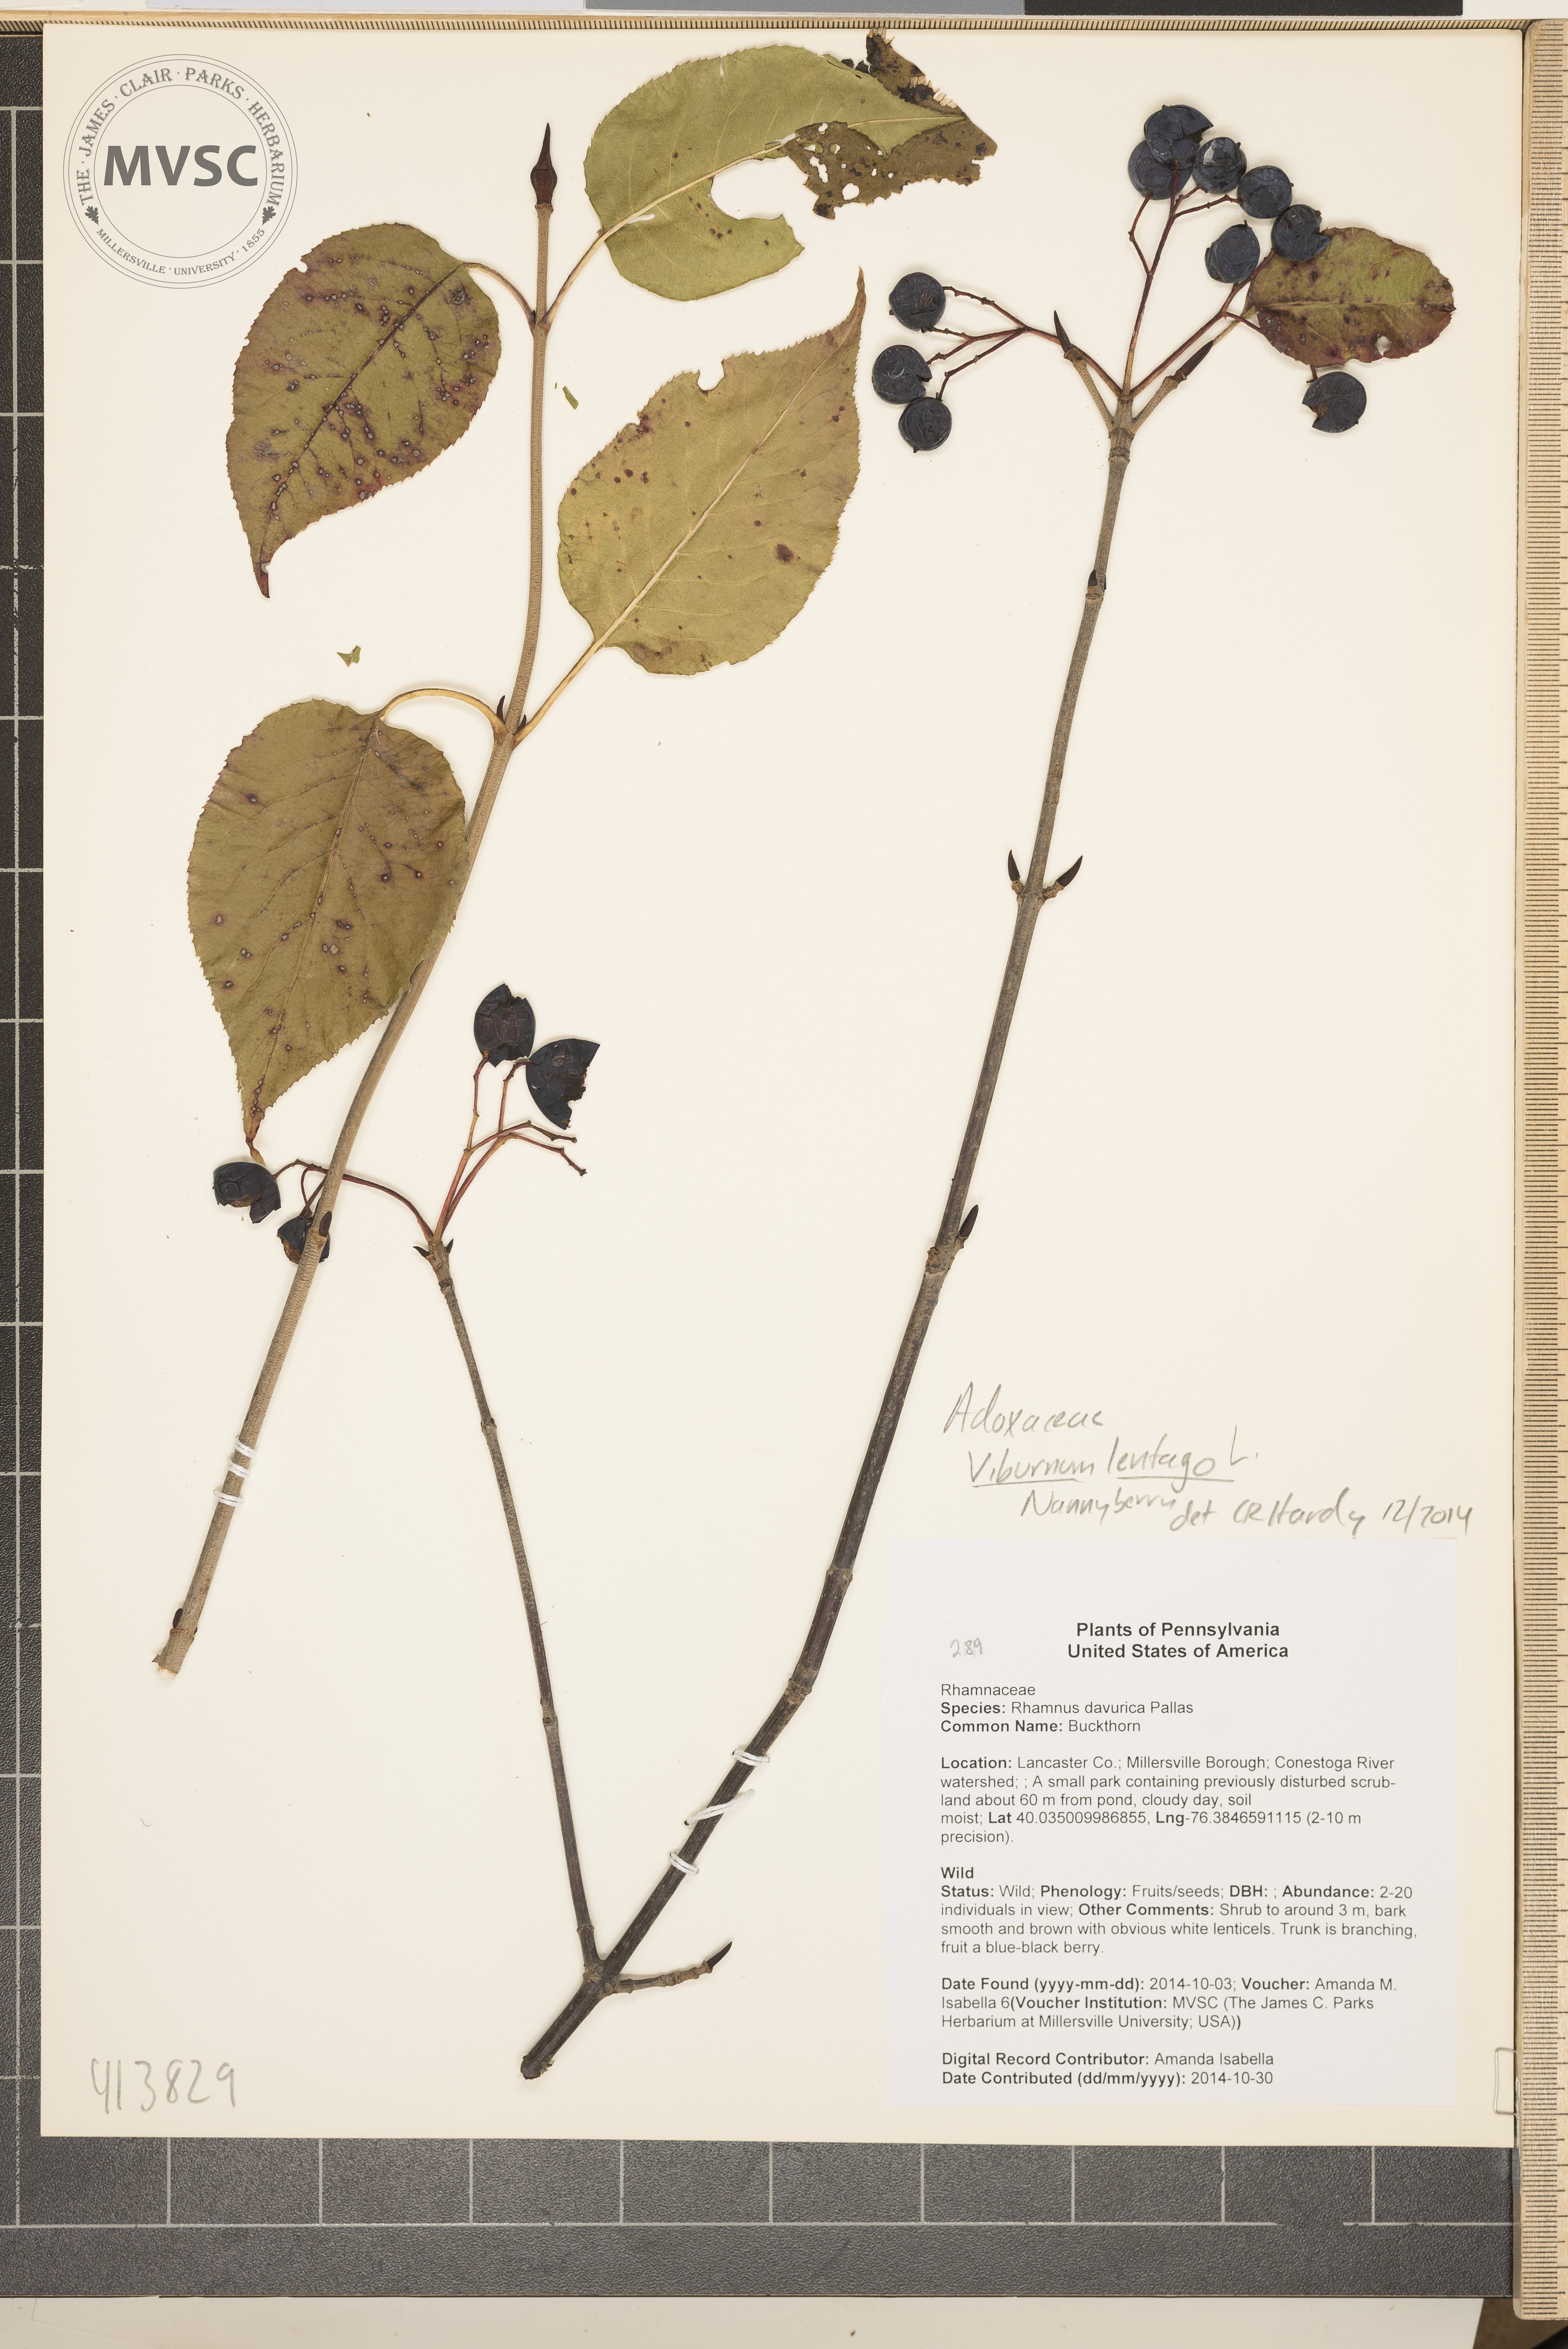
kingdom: Plantae
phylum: Tracheophyta
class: Magnoliopsida
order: Dipsacales
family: Viburnaceae
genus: Viburnum
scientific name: Viburnum lentago
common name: Nannyberry
